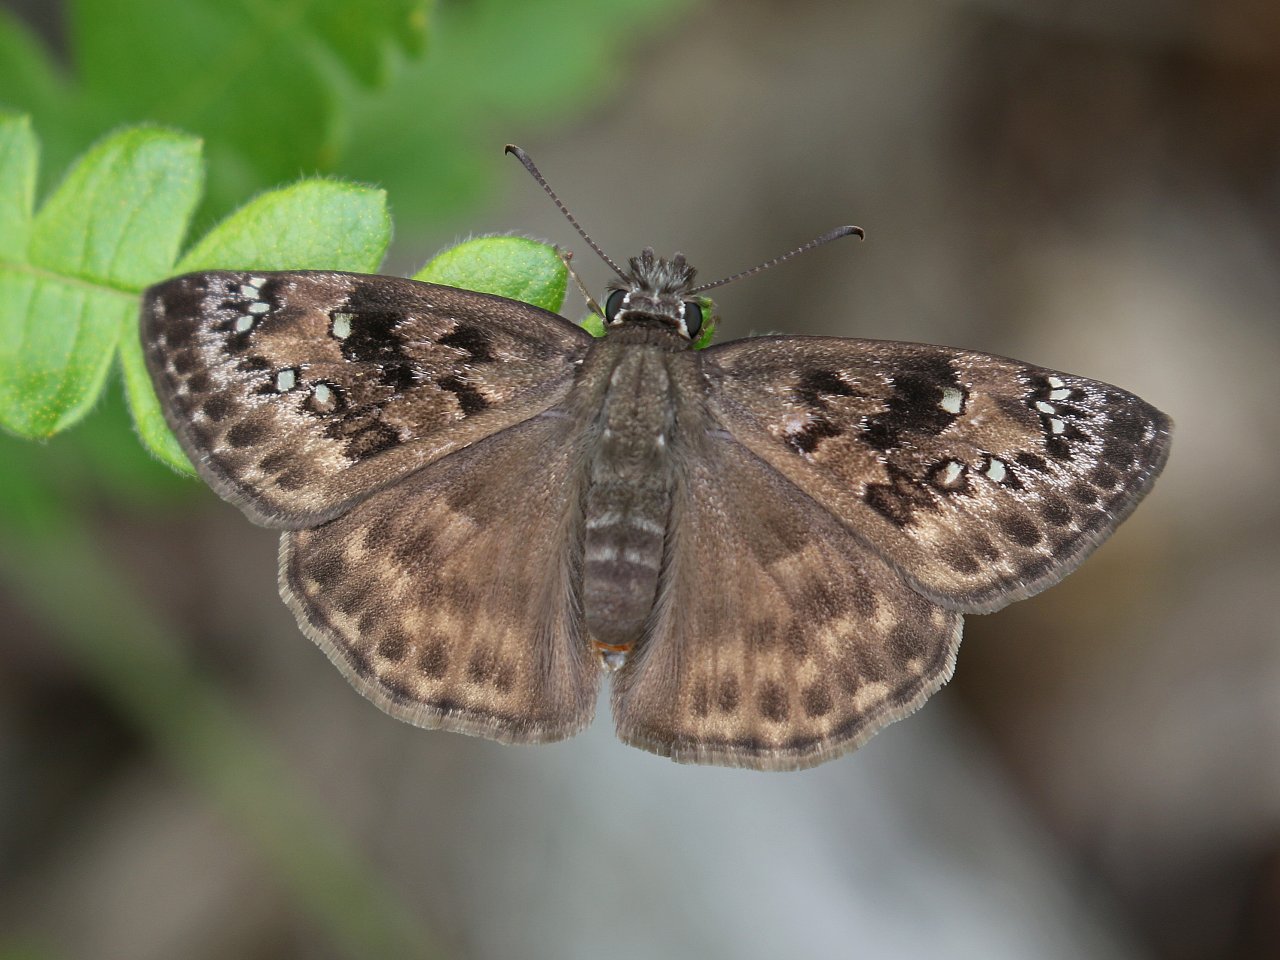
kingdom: Animalia
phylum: Arthropoda
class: Insecta
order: Lepidoptera
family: Hesperiidae
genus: Gesta
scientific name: Gesta
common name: Horace's Duskywing
